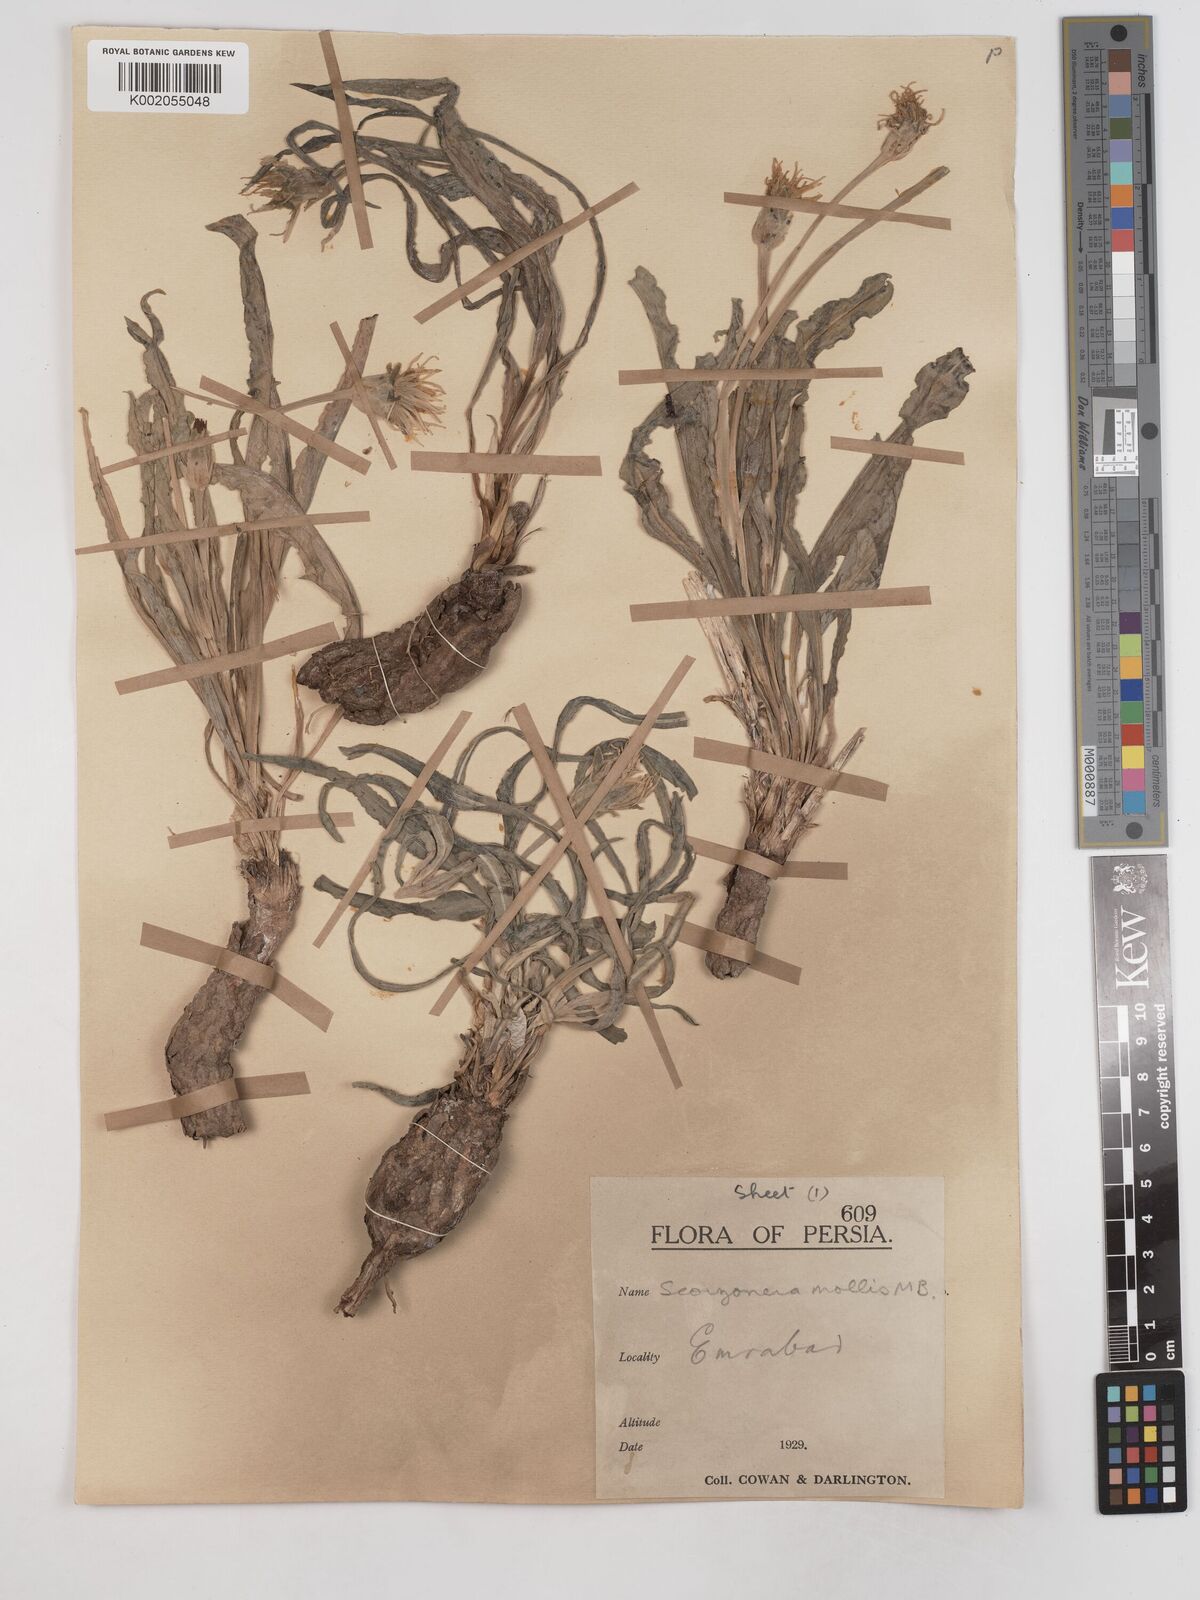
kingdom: Plantae
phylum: Tracheophyta
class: Magnoliopsida
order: Asterales
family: Asteraceae
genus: Candollea
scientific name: Candollea mollis
